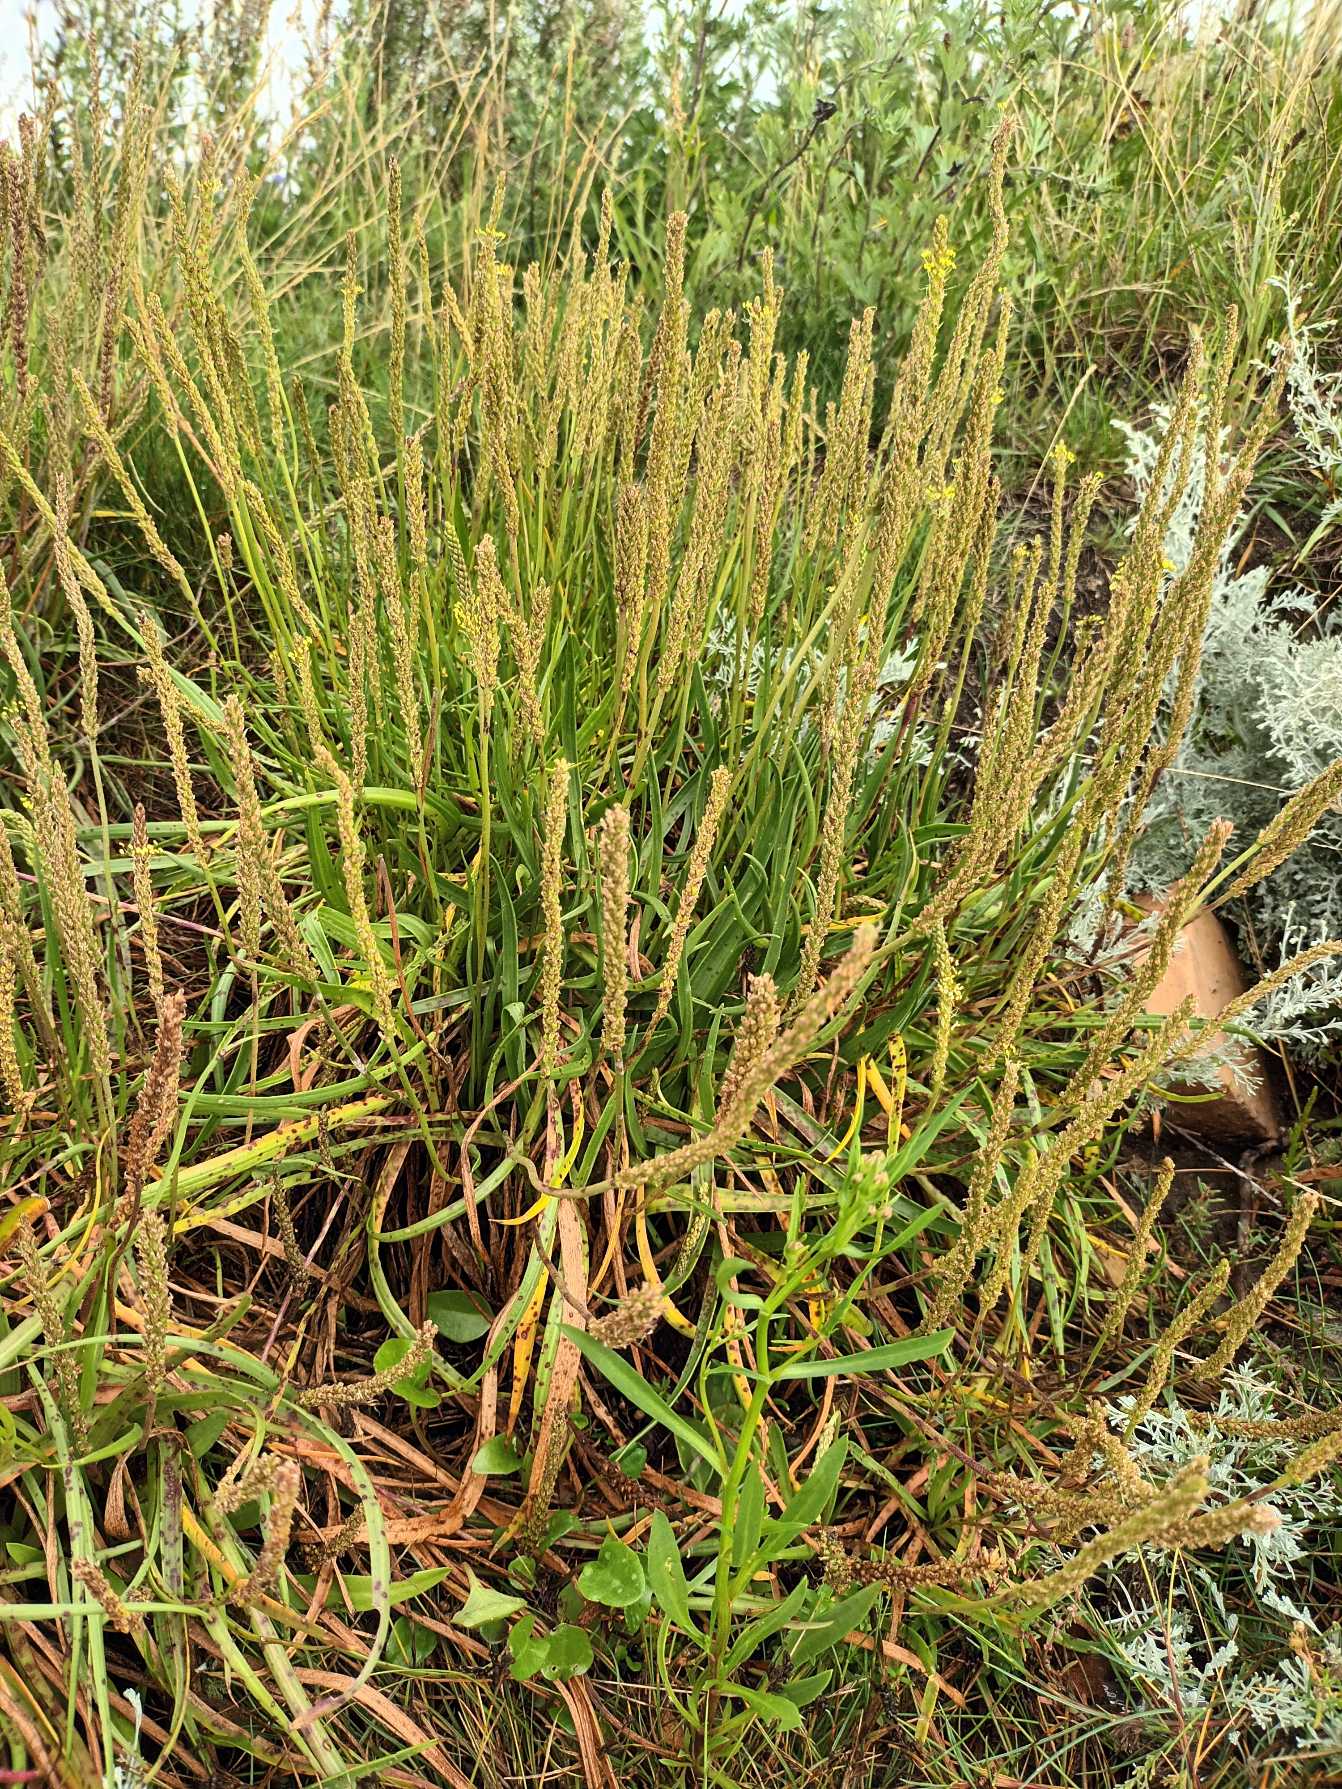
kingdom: Plantae
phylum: Tracheophyta
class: Magnoliopsida
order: Lamiales
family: Plantaginaceae
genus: Plantago
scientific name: Plantago maritima
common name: Strand-vejbred
